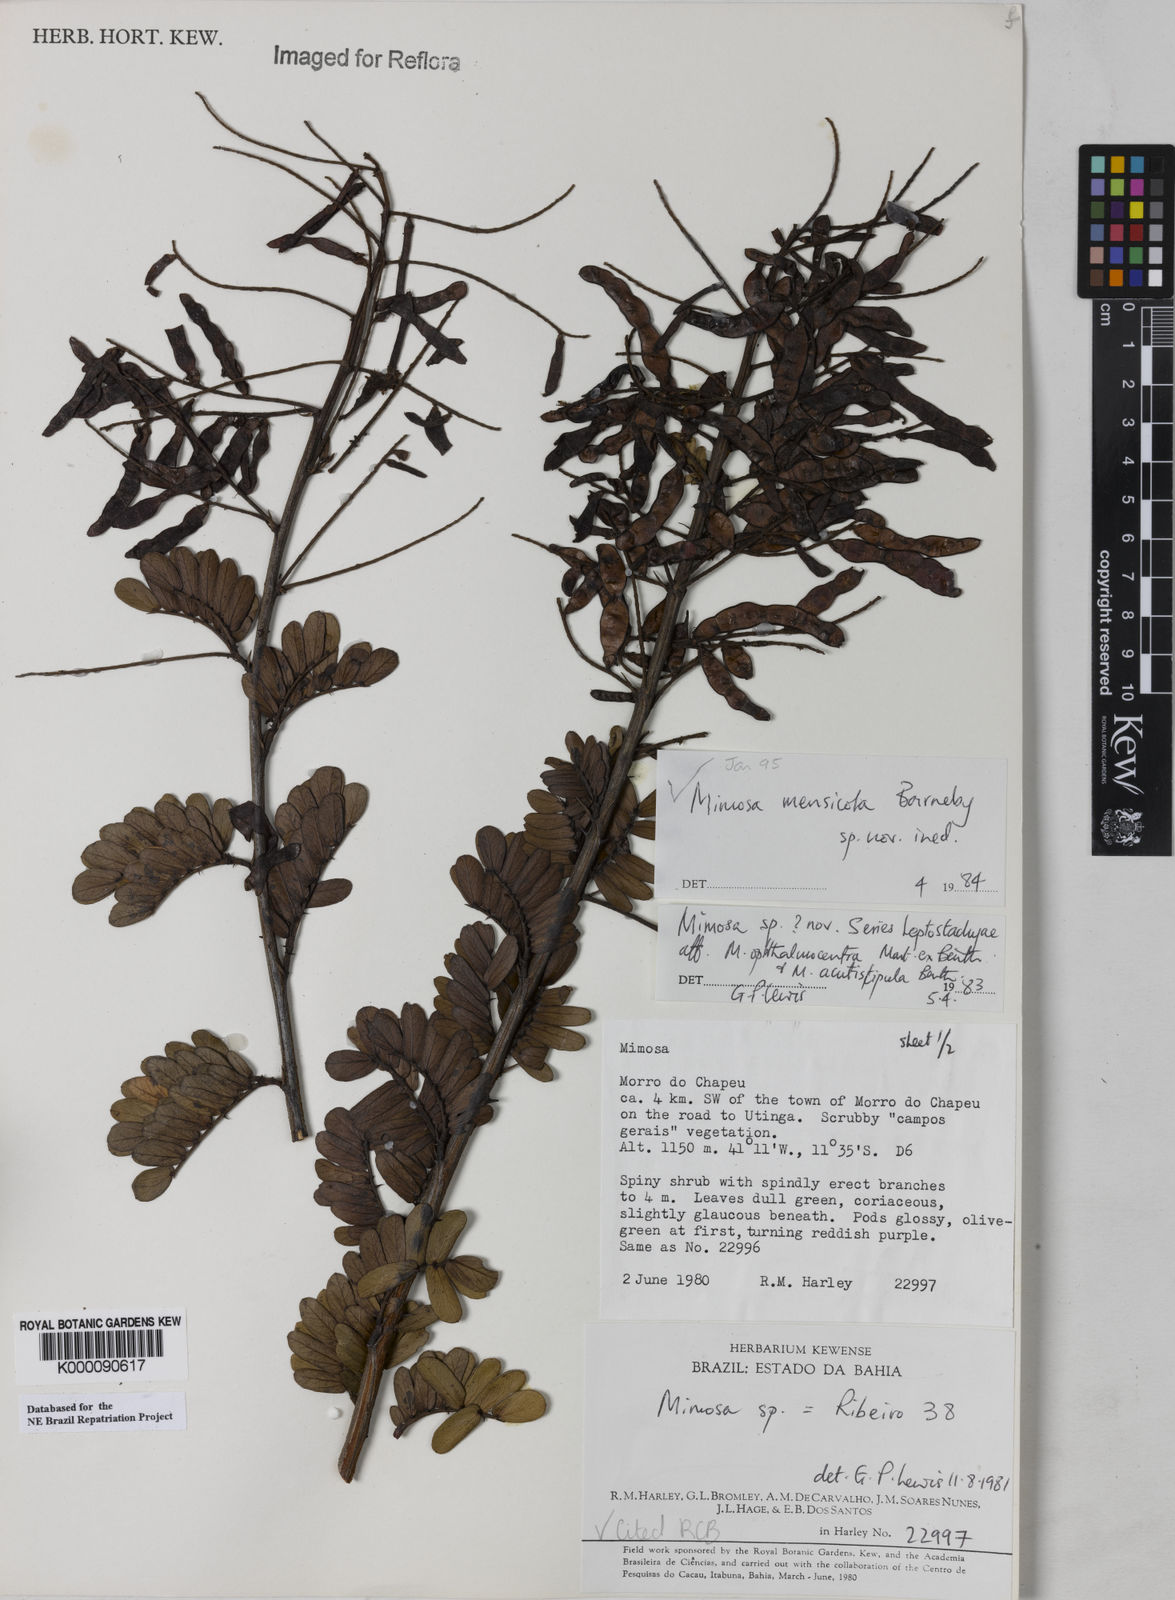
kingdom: Plantae
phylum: Tracheophyta
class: Magnoliopsida
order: Fabales
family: Fabaceae
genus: Mimosa
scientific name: Mimosa mensicola
